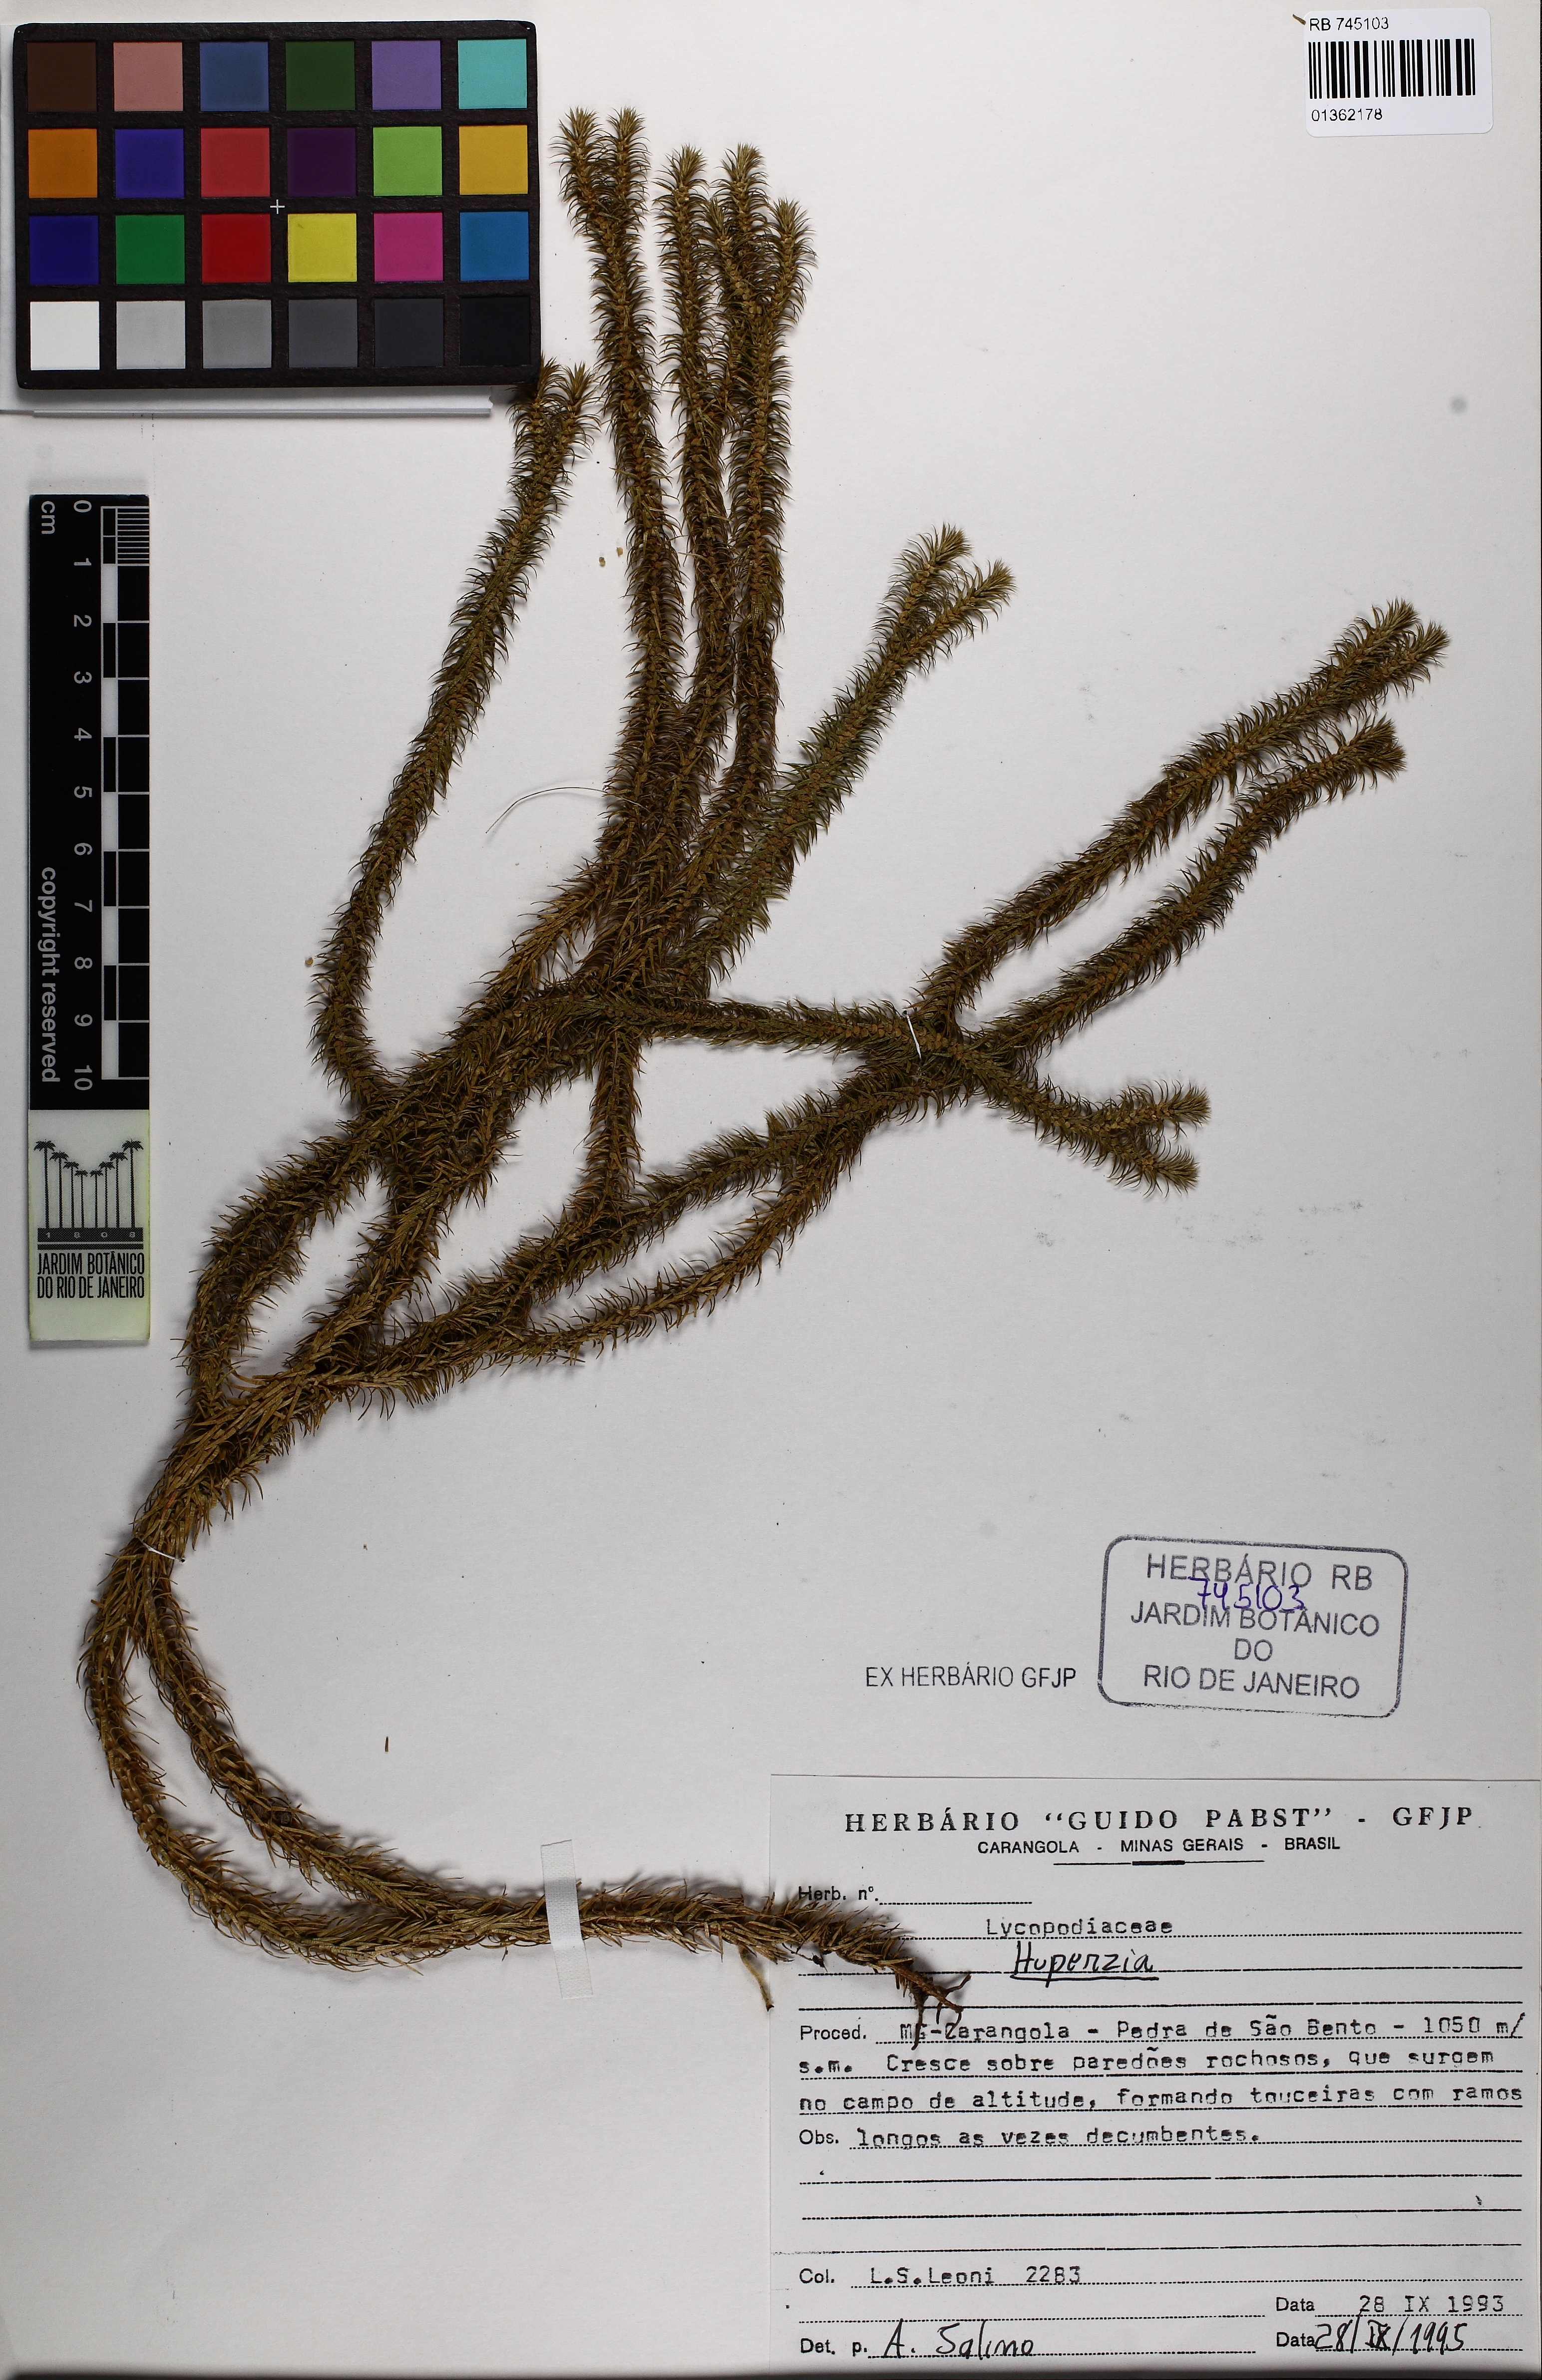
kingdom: Plantae
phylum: Tracheophyta
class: Lycopodiopsida
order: Lycopodiales
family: Lycopodiaceae
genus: Phlegmariurus
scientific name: Phlegmariurus pungentifolius
